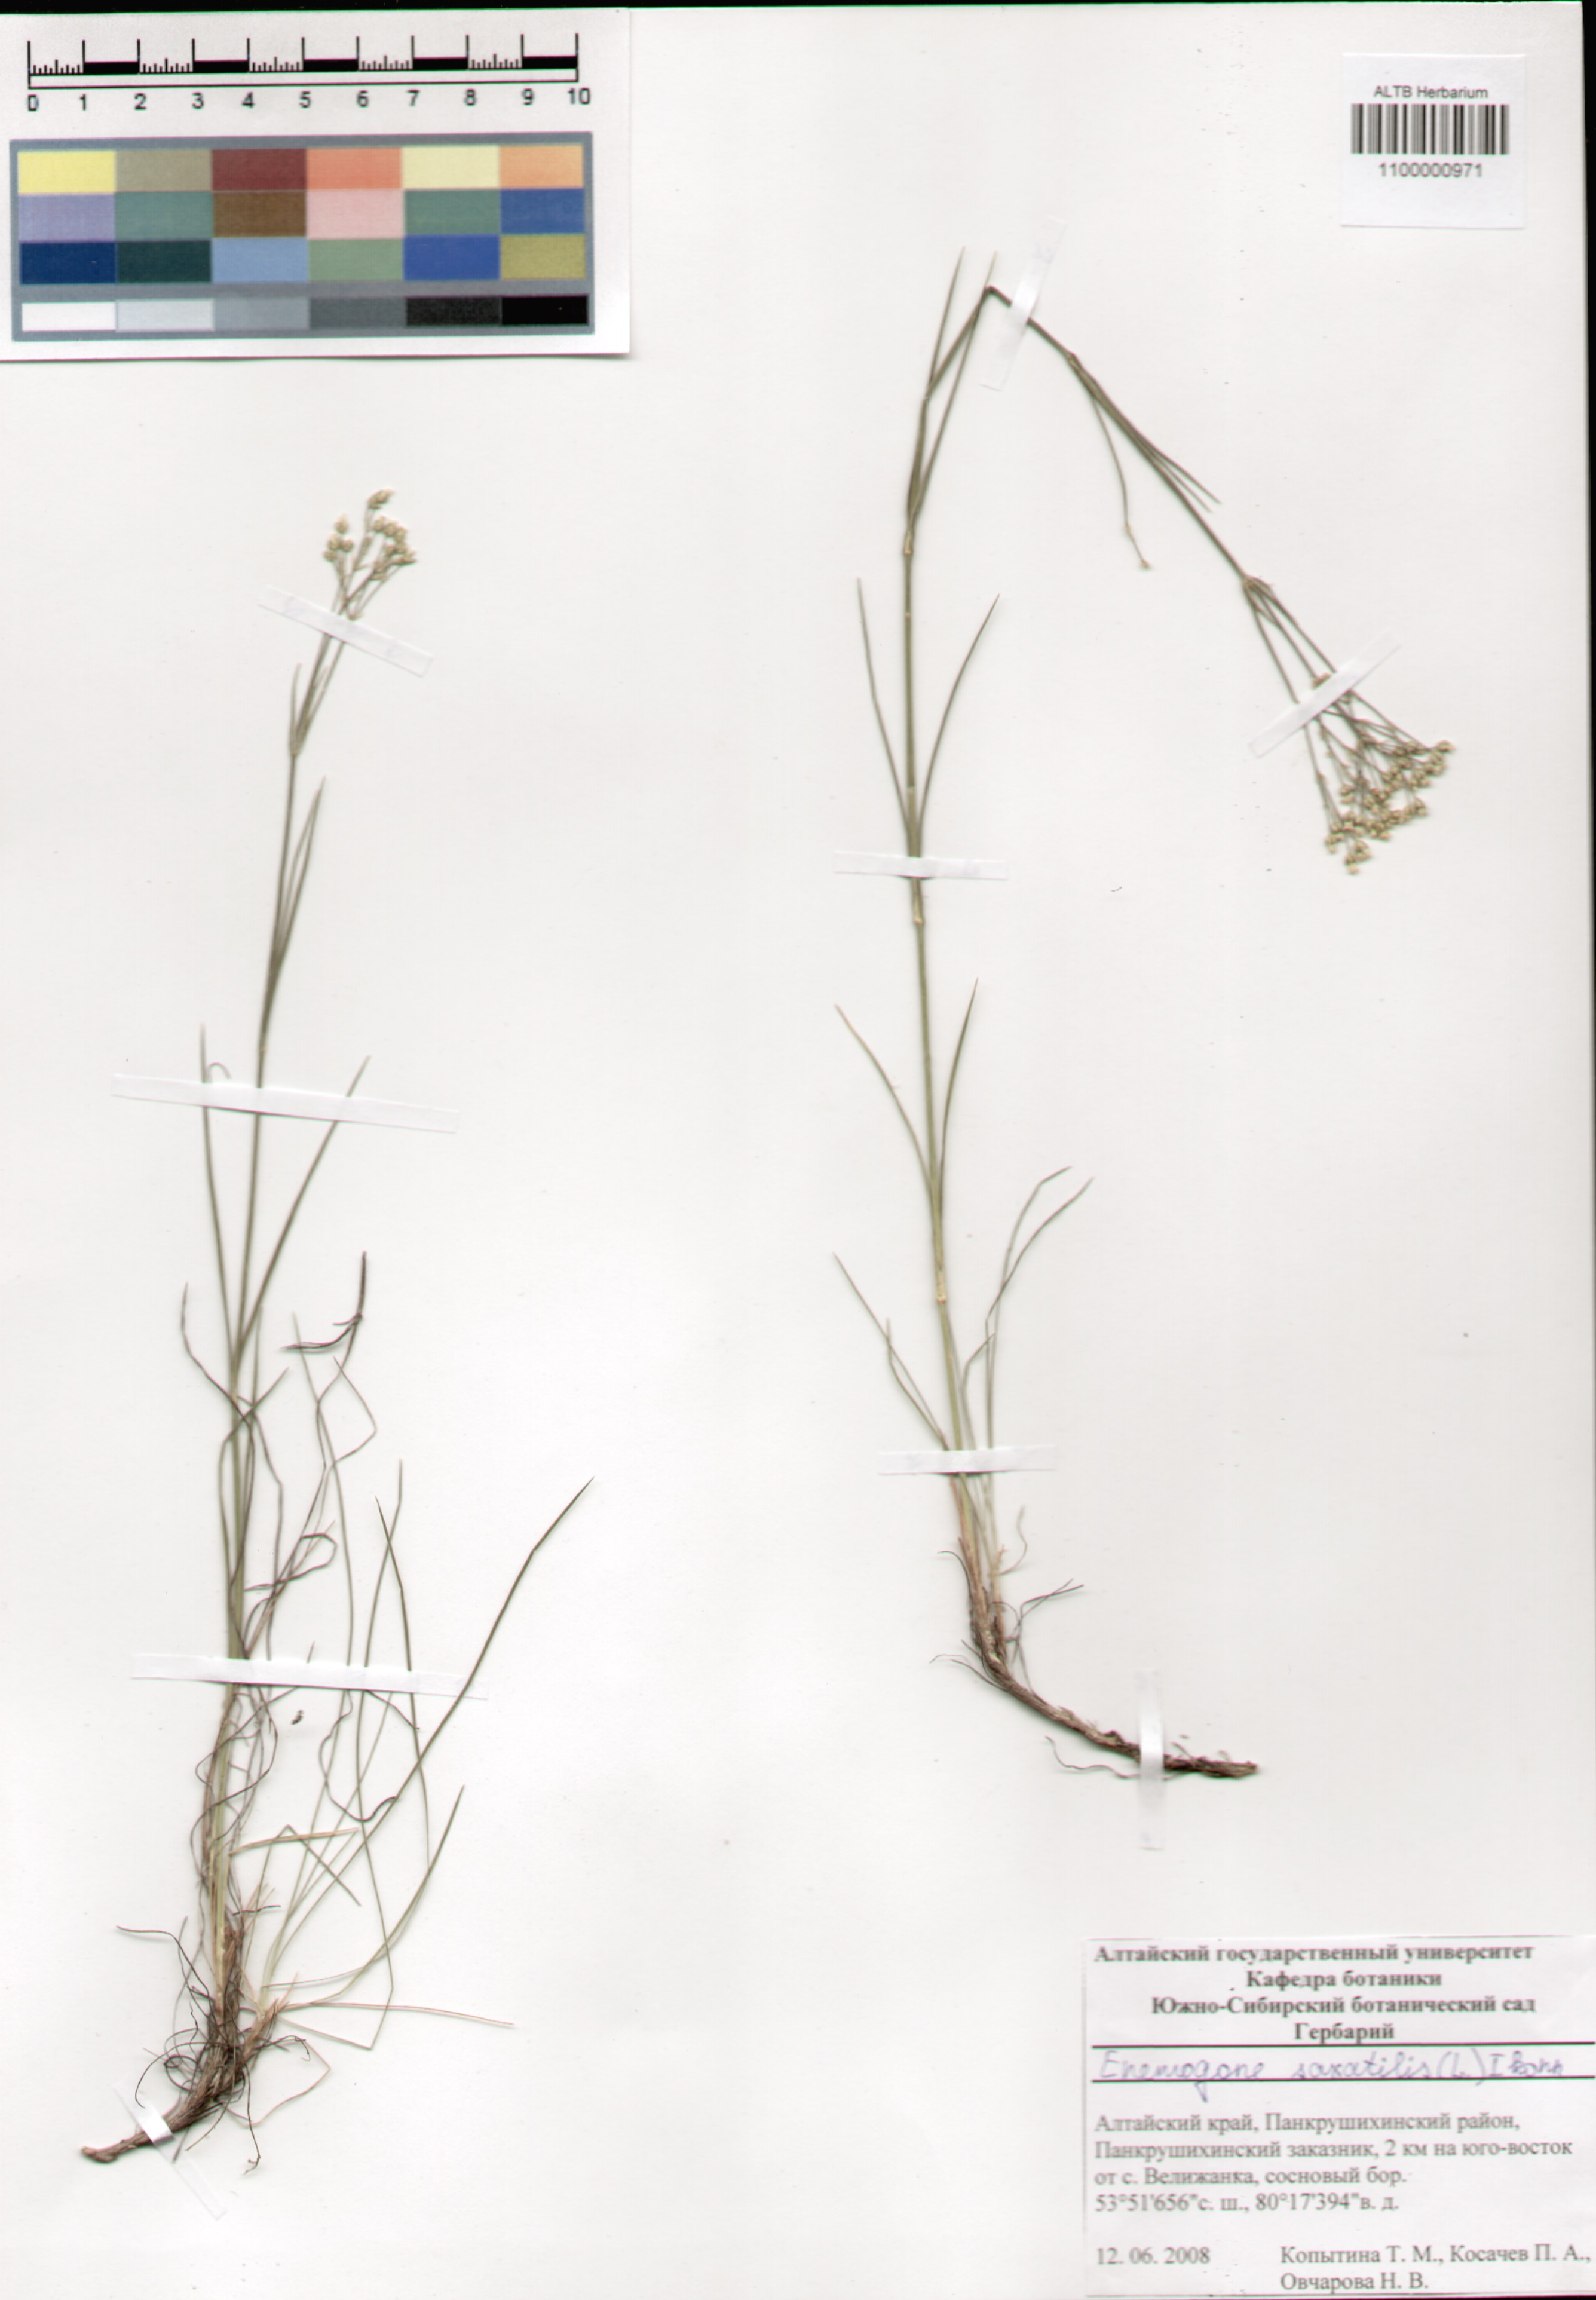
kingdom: Plantae
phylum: Tracheophyta
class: Magnoliopsida
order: Caryophyllales
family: Caryophyllaceae
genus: Eremogone
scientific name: Eremogone saxatilis
